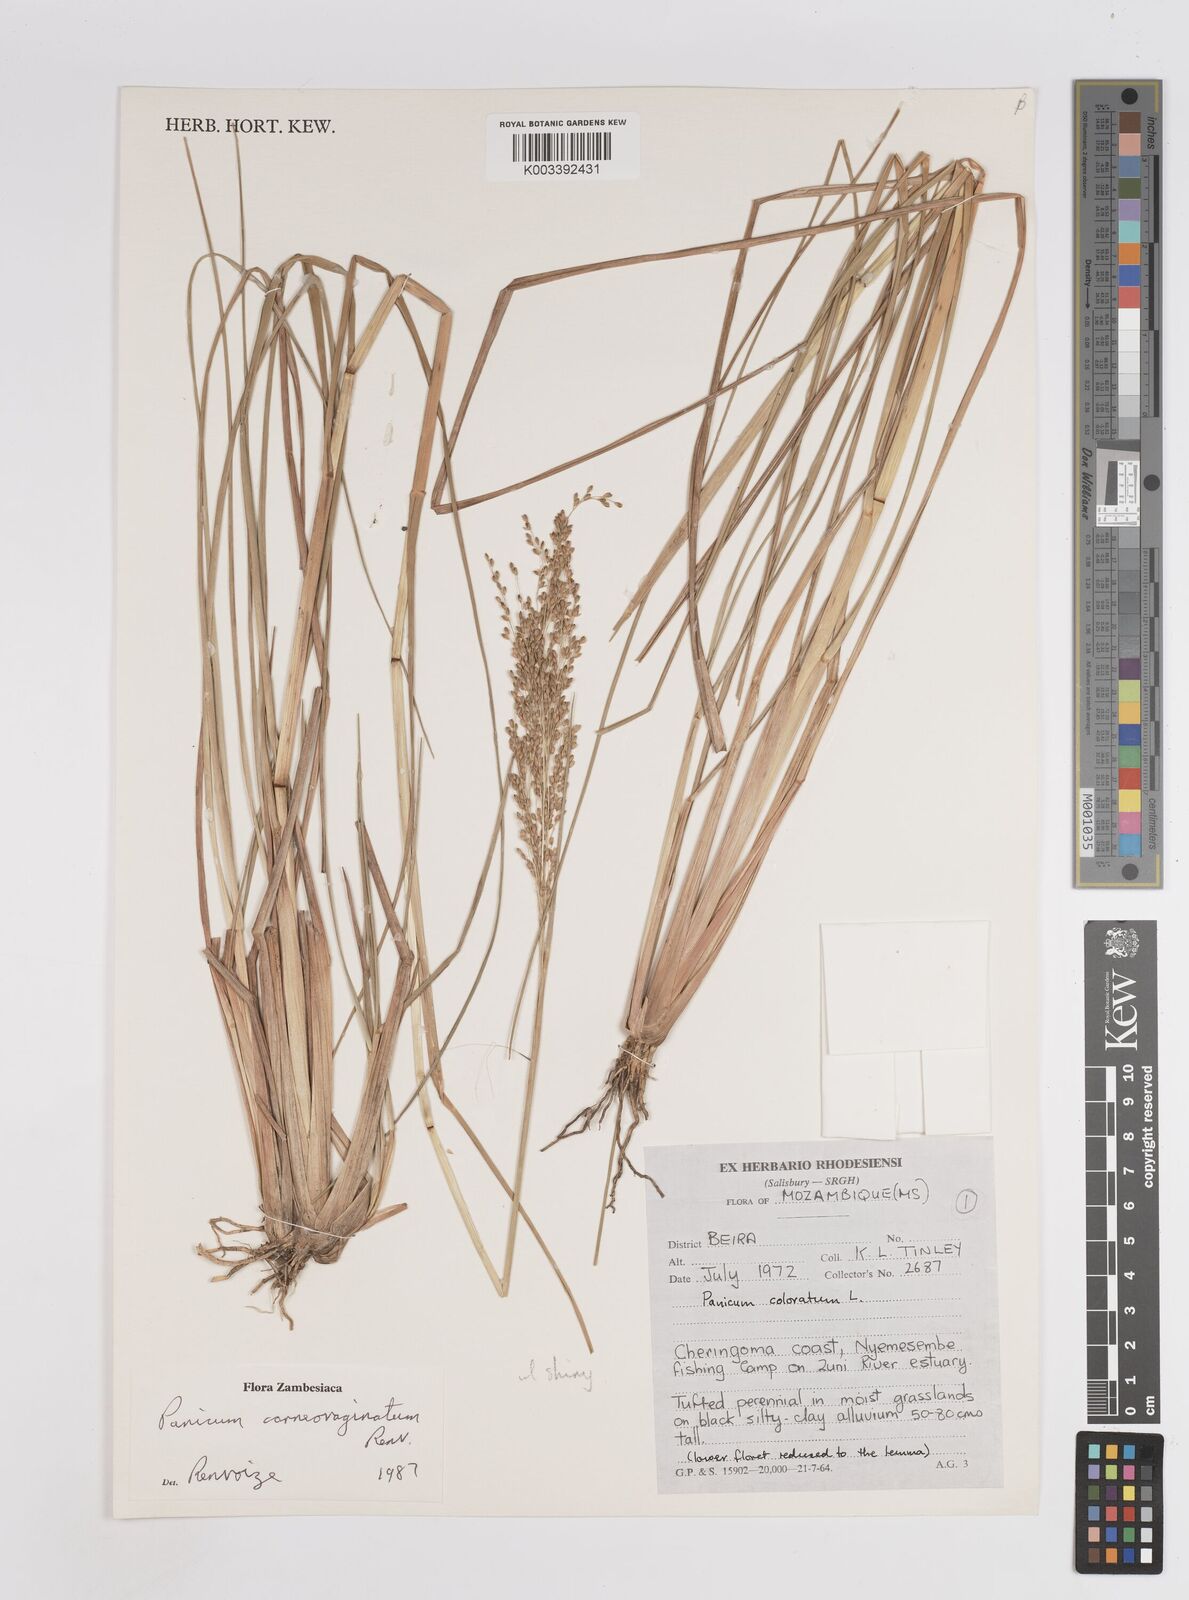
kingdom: Plantae
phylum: Tracheophyta
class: Liliopsida
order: Poales
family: Poaceae
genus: Panicum
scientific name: Panicum carneovaginatum
